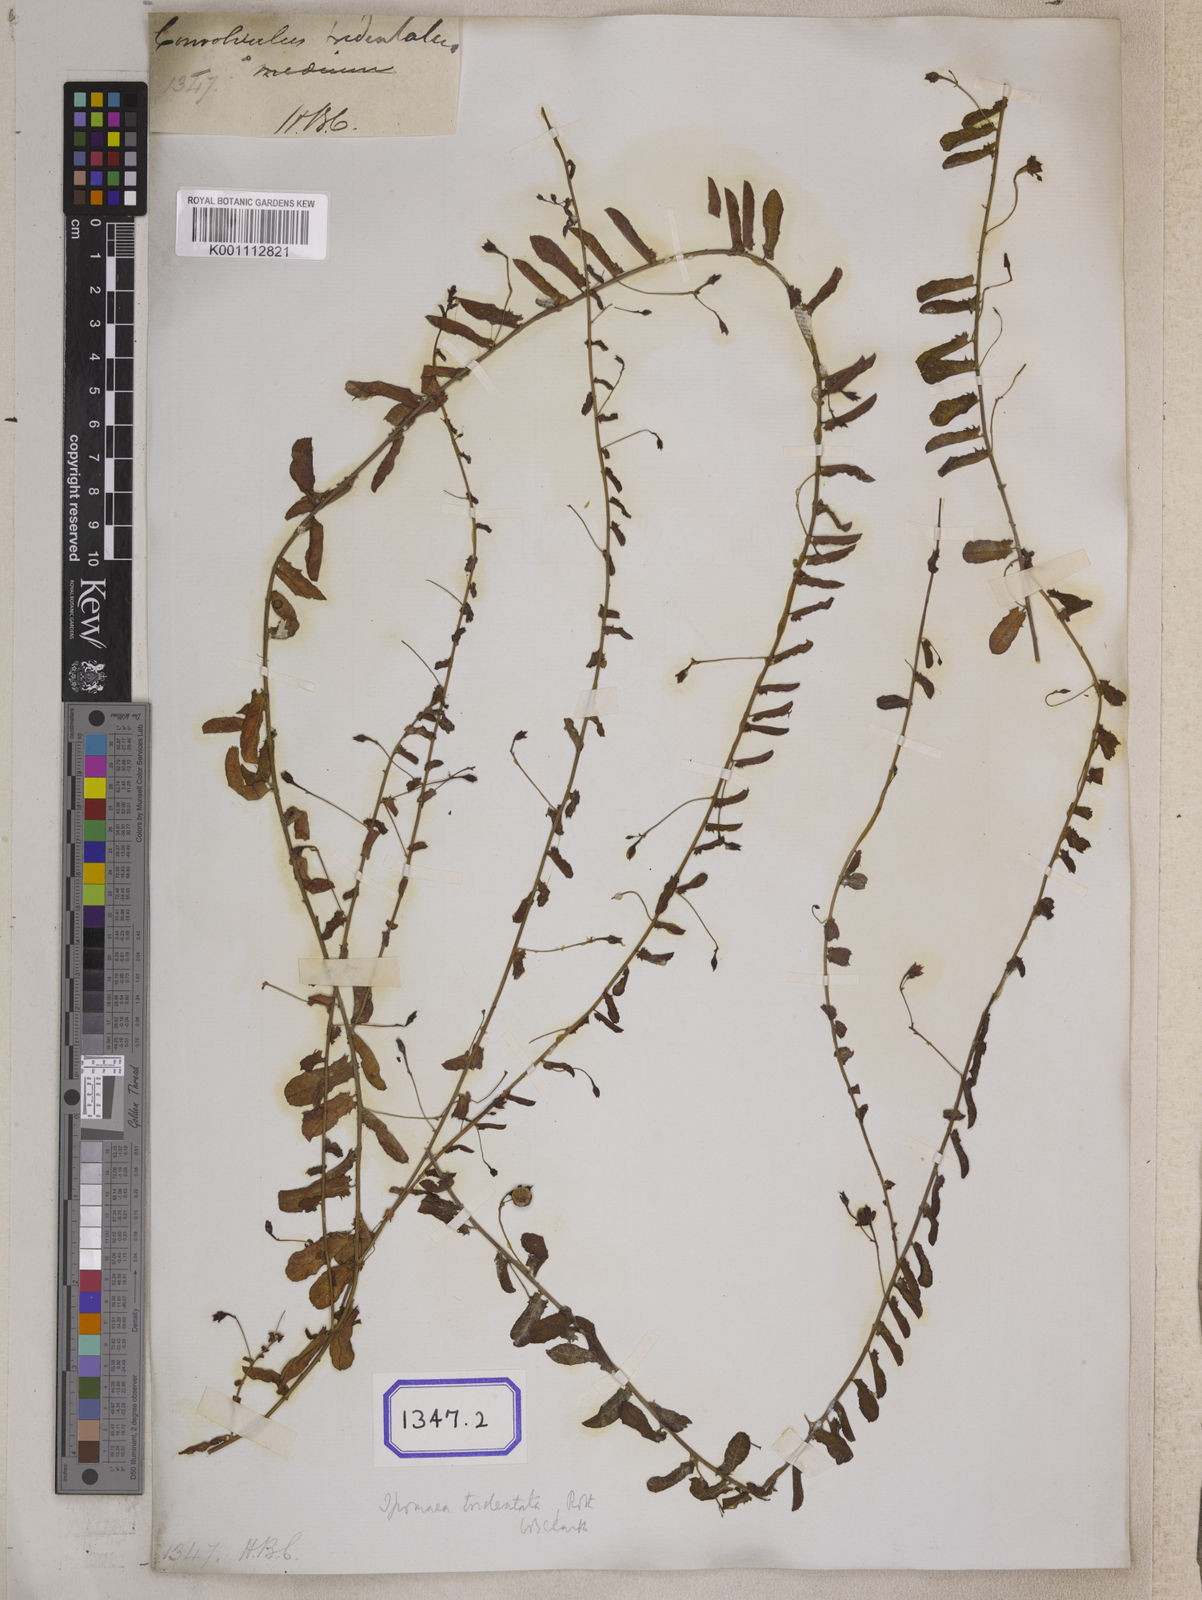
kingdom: Plantae
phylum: Tracheophyta
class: Magnoliopsida
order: Solanales
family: Convolvulaceae
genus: Xenostegia
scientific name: Xenostegia tridentata
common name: African morningvine
